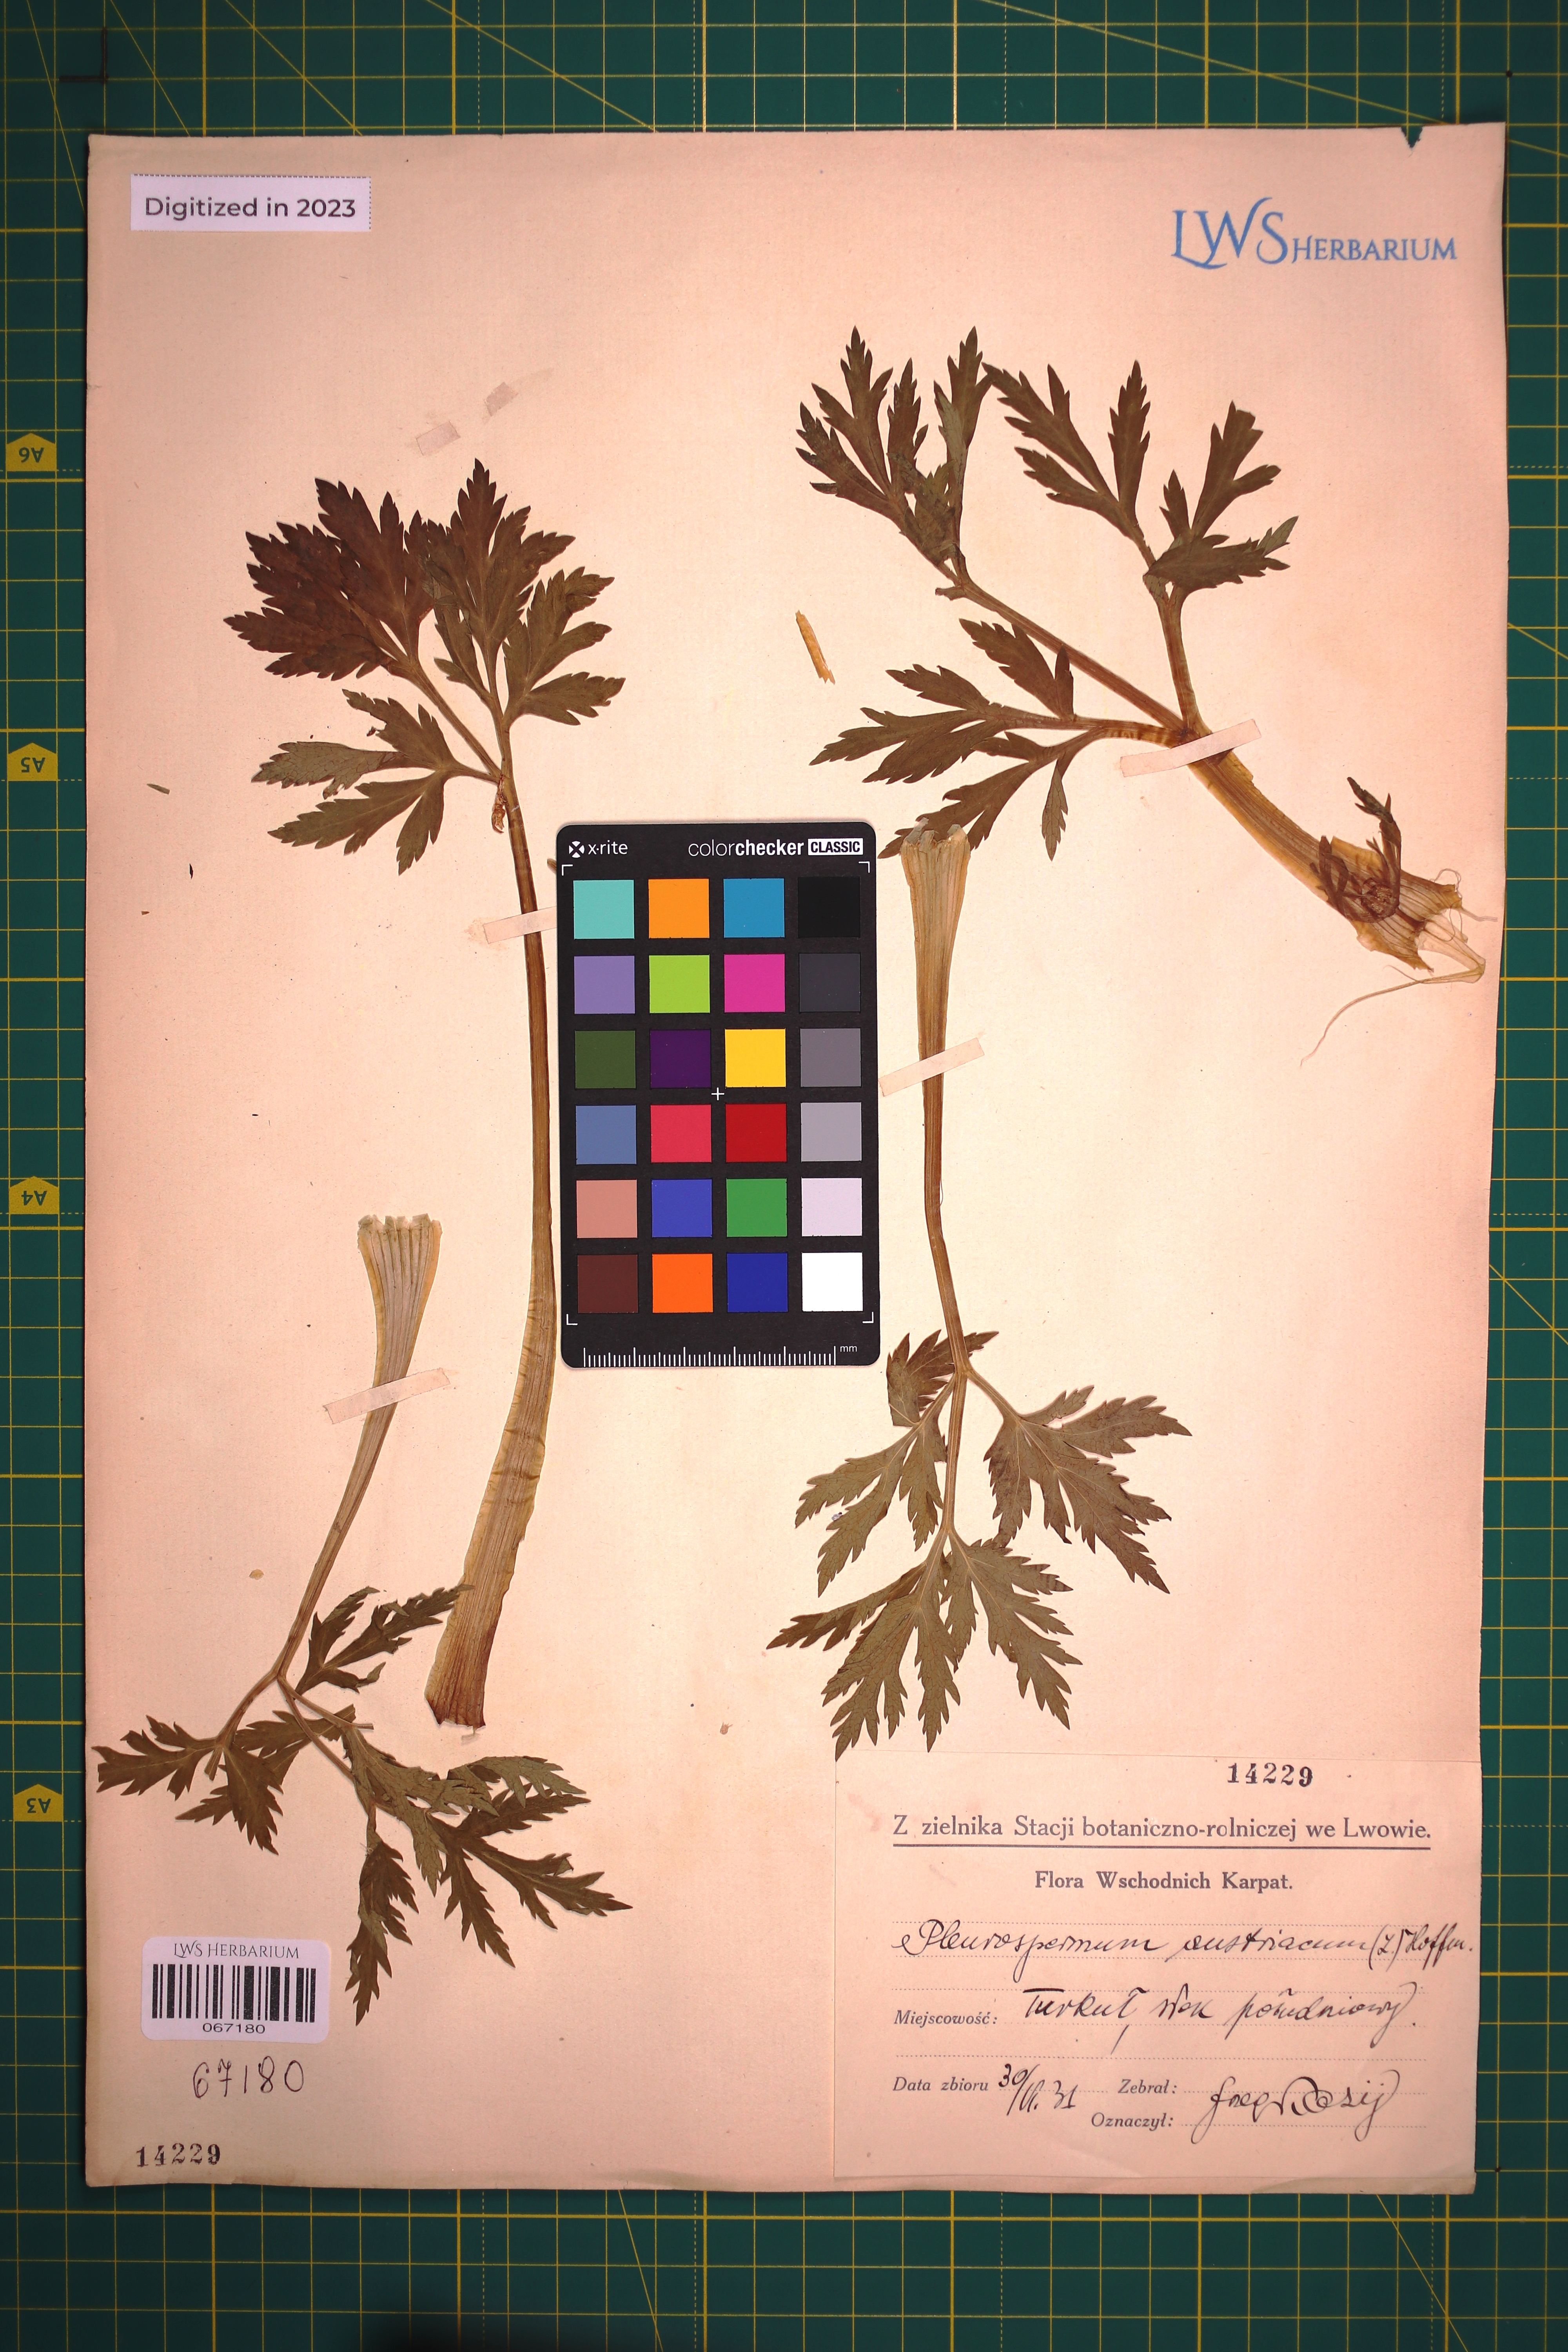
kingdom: Plantae
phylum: Tracheophyta
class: Magnoliopsida
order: Apiales
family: Apiaceae
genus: Pleurospermum
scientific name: Pleurospermum austriacum
